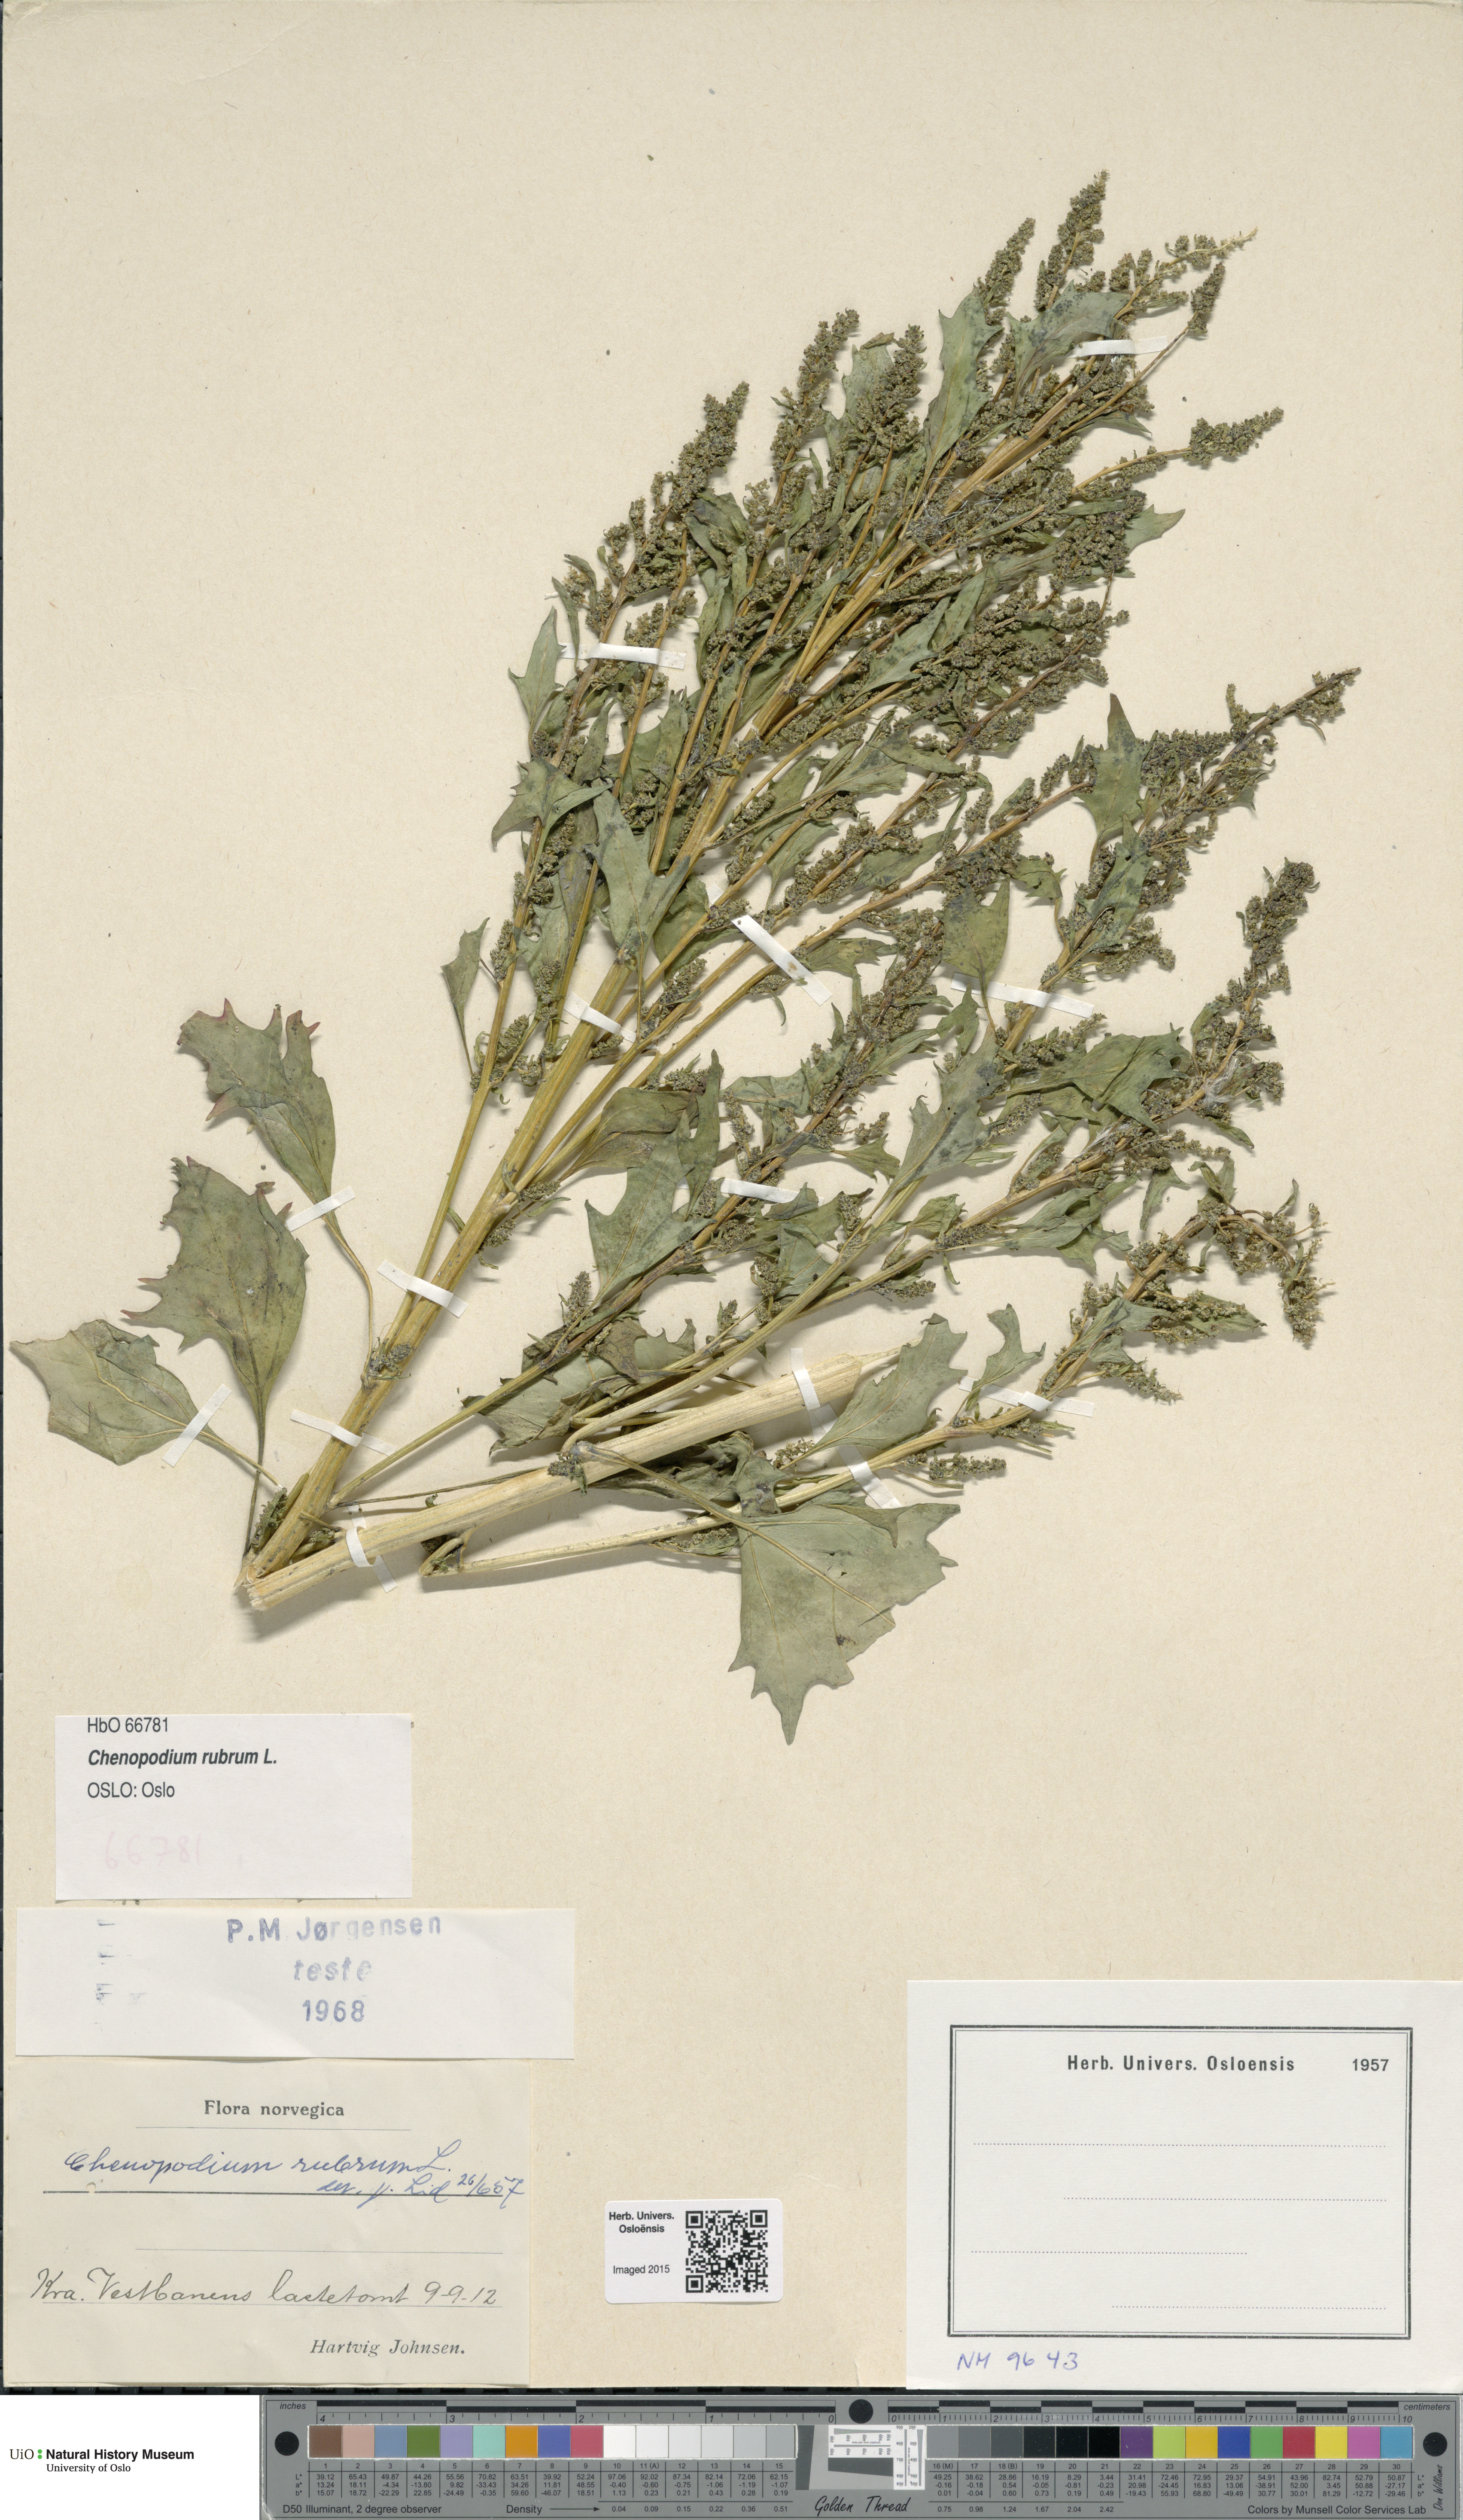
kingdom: Plantae
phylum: Tracheophyta
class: Magnoliopsida
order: Caryophyllales
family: Amaranthaceae
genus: Oxybasis
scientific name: Oxybasis rubra
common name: Red goosefoot
